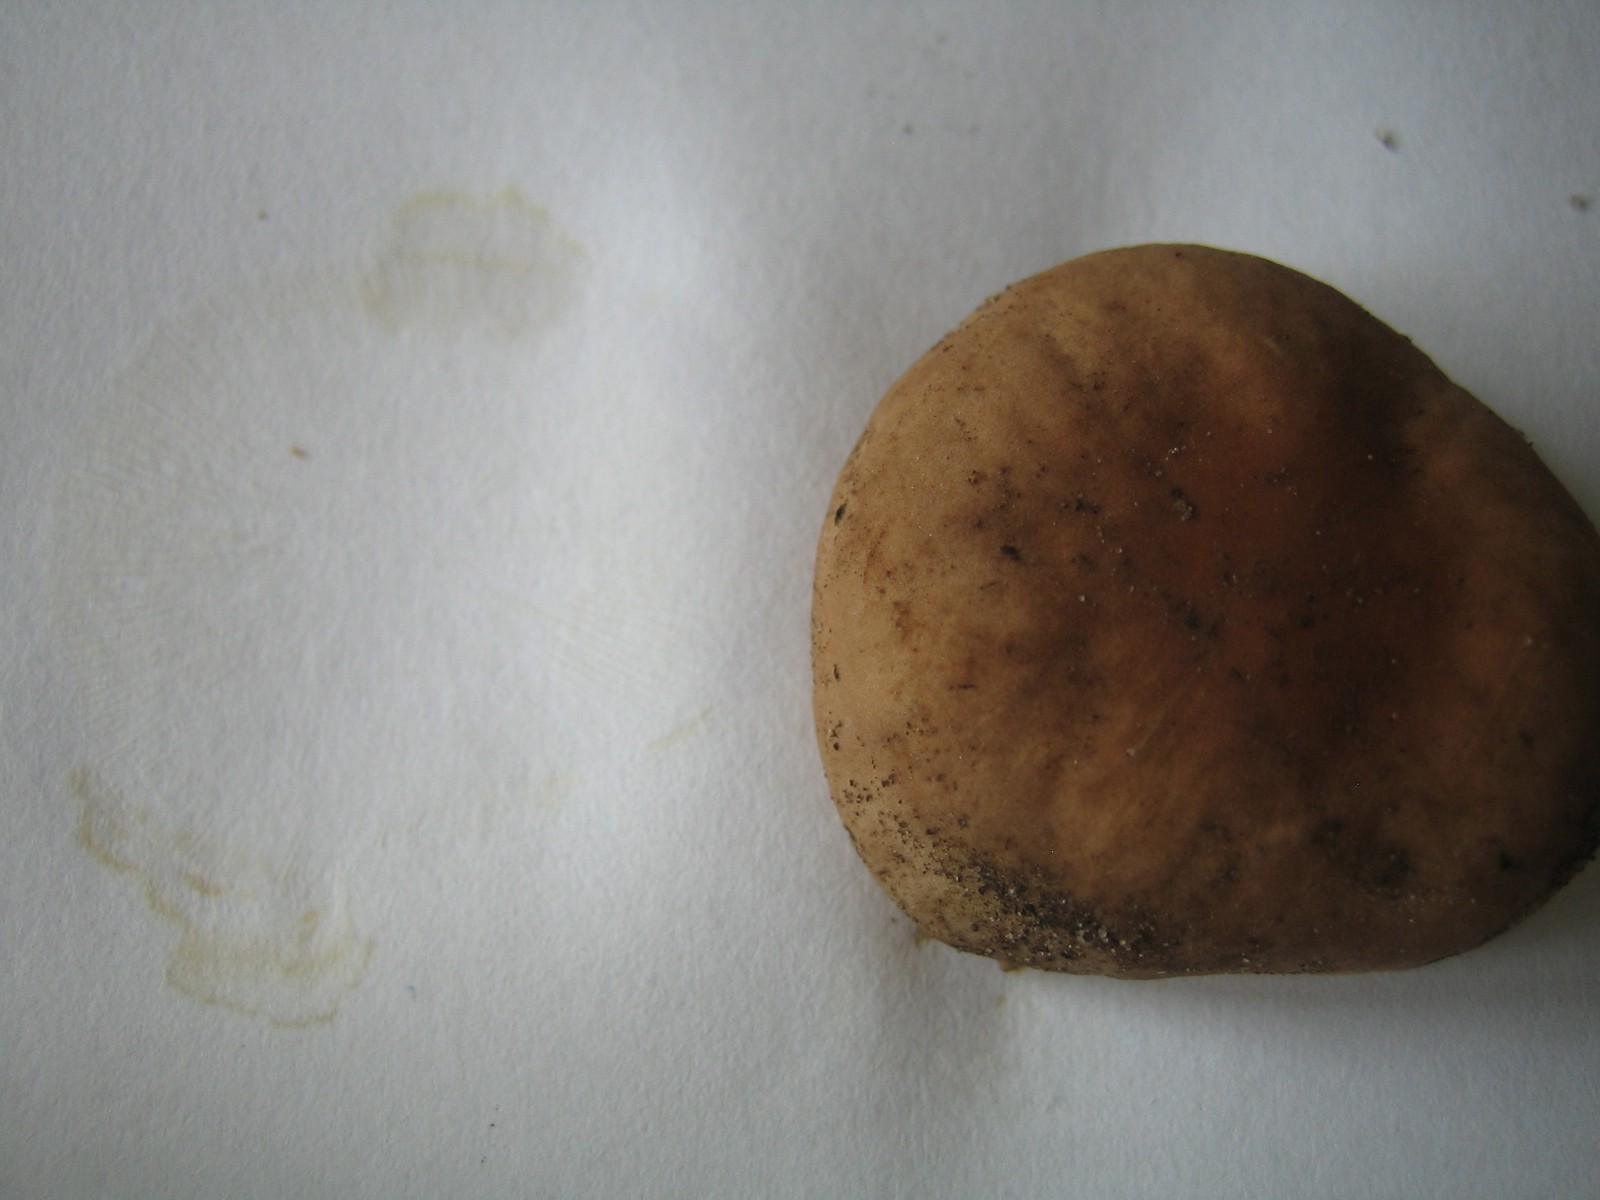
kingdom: Fungi
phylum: Basidiomycota
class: Agaricomycetes
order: Agaricales
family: Omphalotaceae
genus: Gymnopus
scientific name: Gymnopus ocior
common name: mørk fladhat
